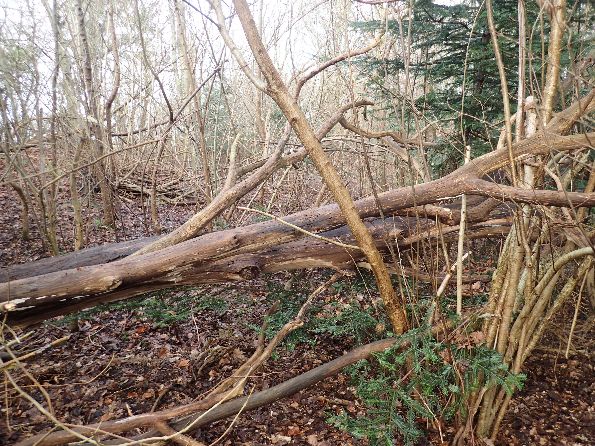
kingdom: Fungi
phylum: Basidiomycota
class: Agaricomycetes
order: Auriculariales
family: Auriculariaceae
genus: Auricularia
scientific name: Auricularia auricula-judae
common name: almindelig judasøre
